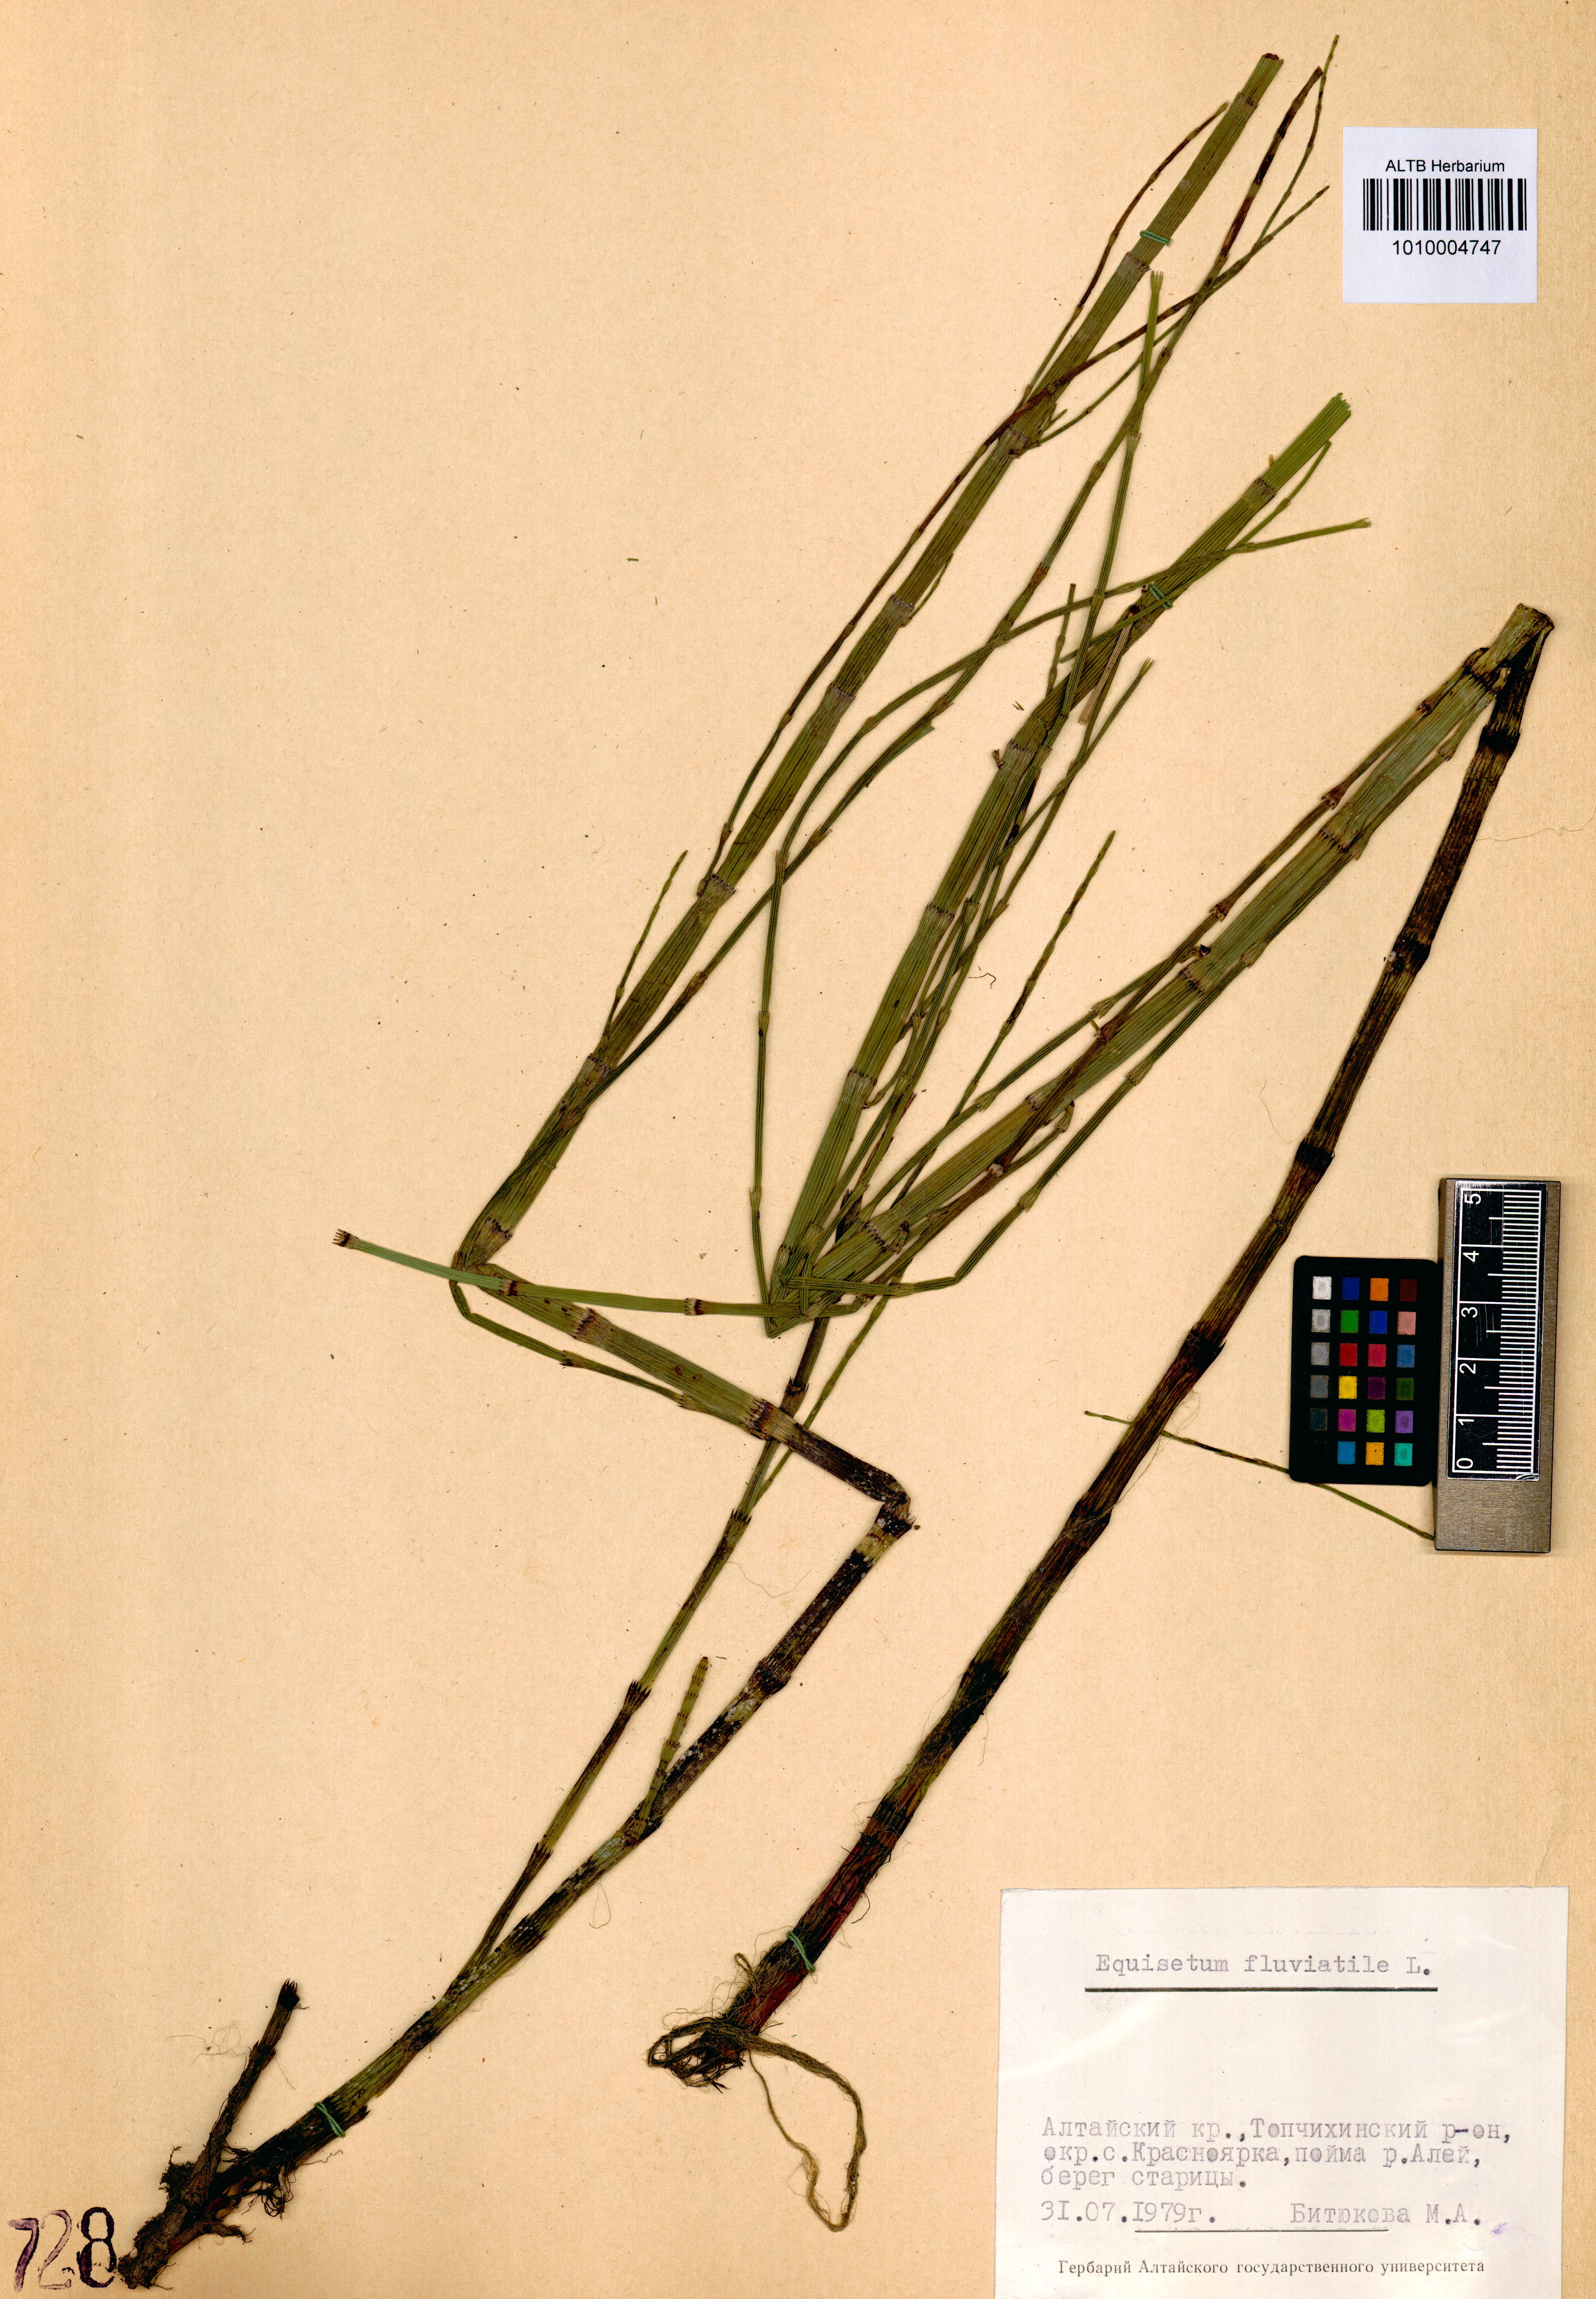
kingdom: Plantae
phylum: Tracheophyta
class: Polypodiopsida
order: Equisetales
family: Equisetaceae
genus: Equisetum
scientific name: Equisetum fluviatile
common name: Water horsetail
